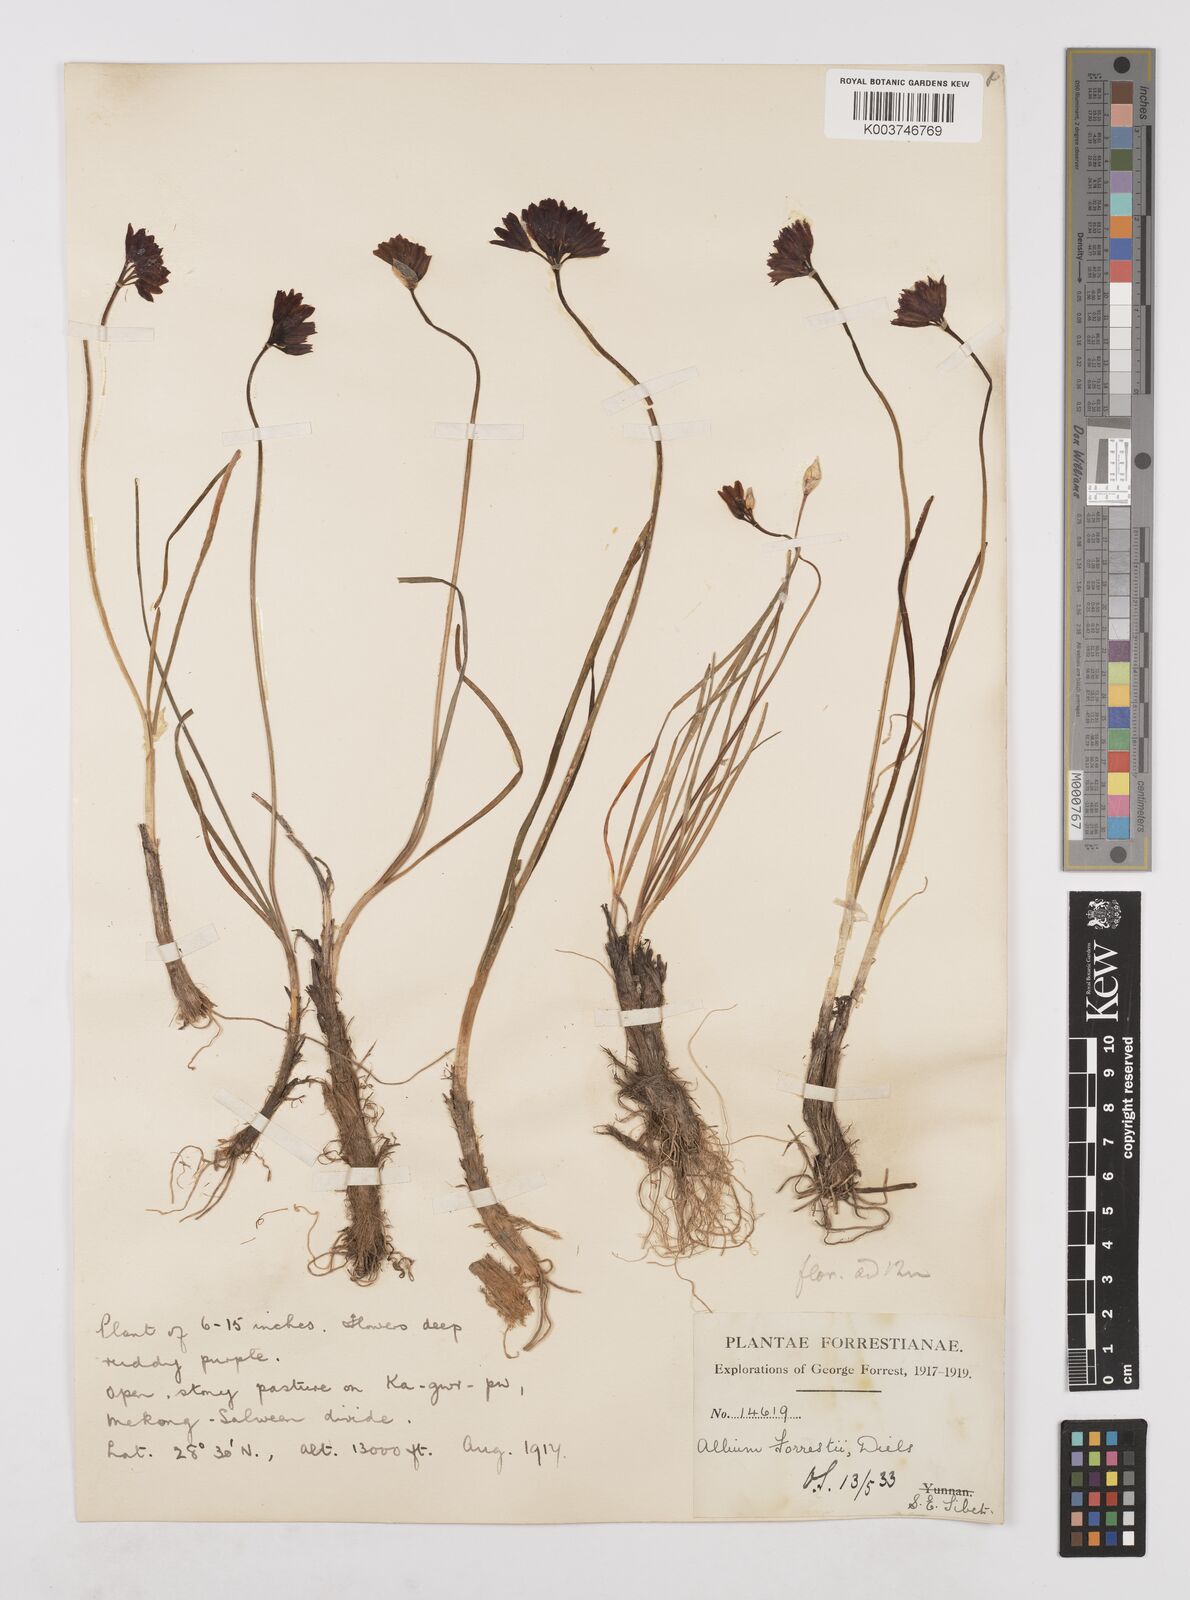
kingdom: Plantae
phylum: Tracheophyta
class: Liliopsida
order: Asparagales
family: Amaryllidaceae
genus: Allium
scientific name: Allium forrestii
